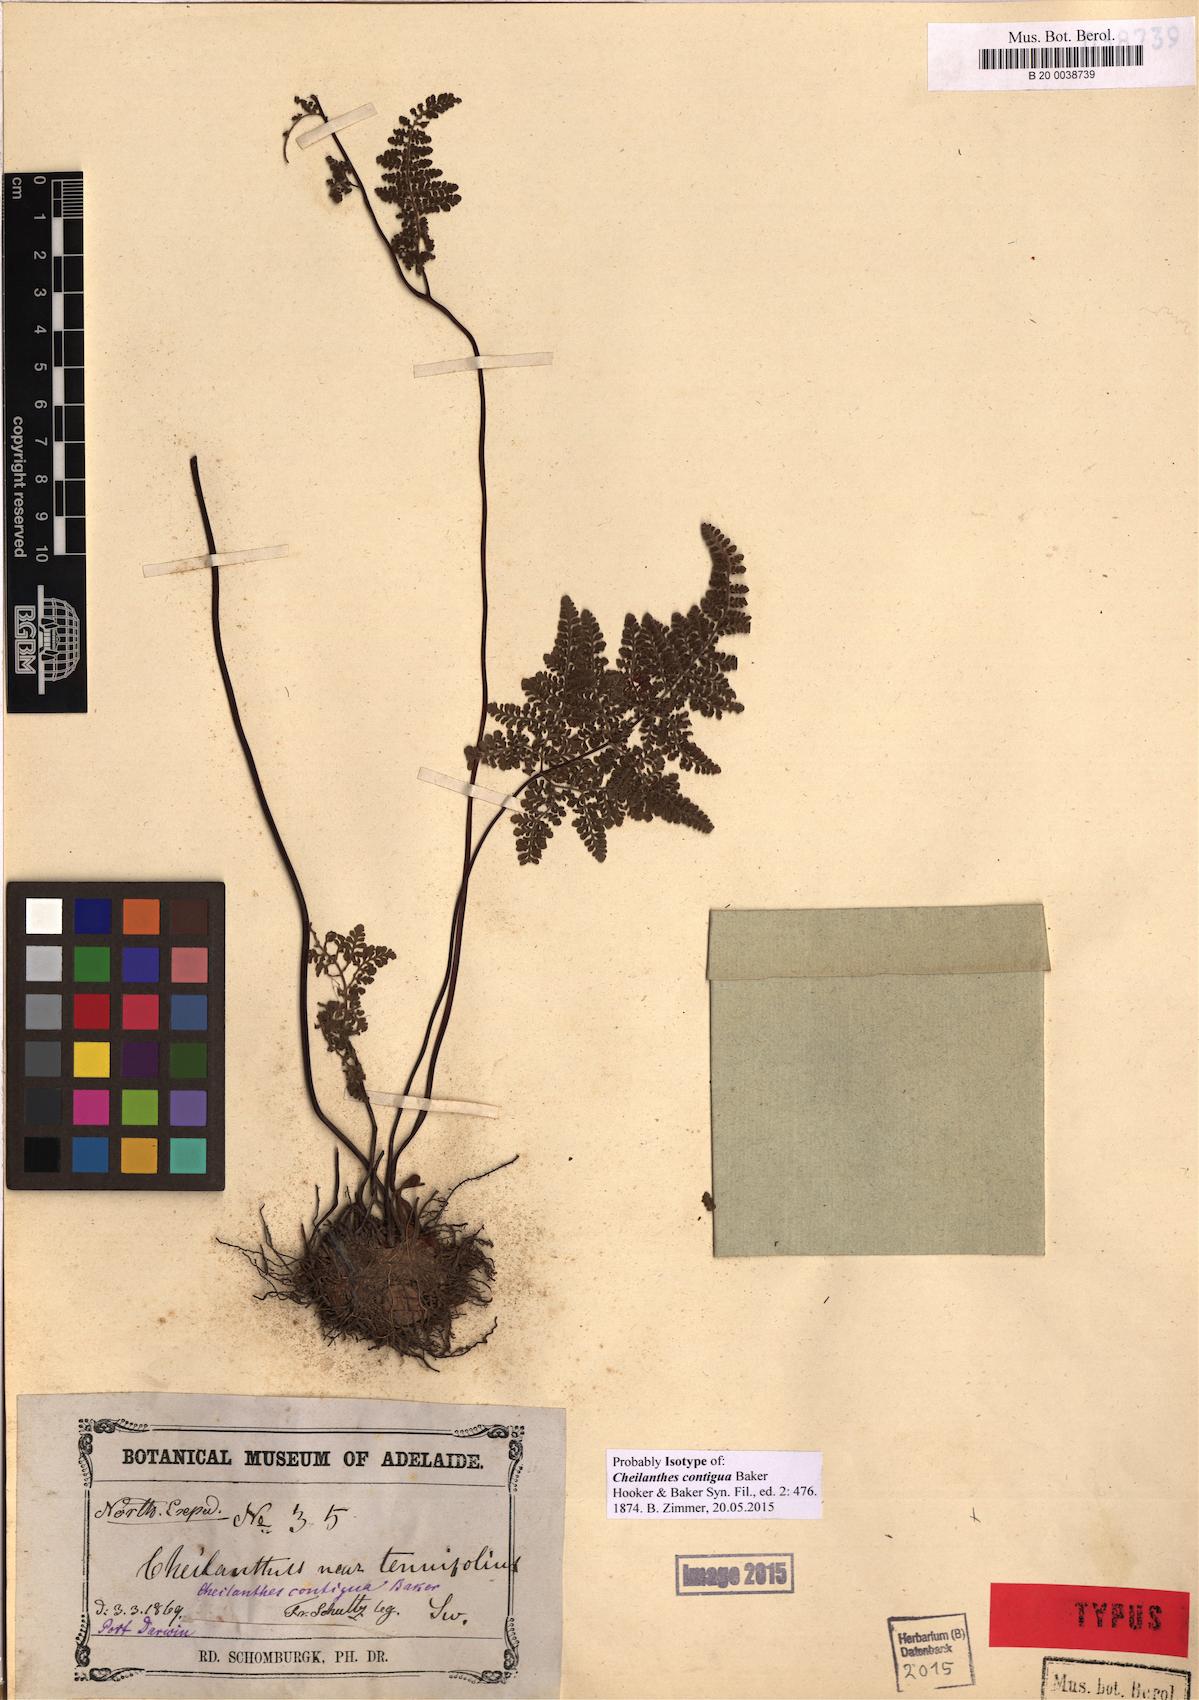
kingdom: Plantae
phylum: Tracheophyta
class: Polypodiopsida
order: Polypodiales
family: Pteridaceae
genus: Cheilanthes
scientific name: Cheilanthes contigua
